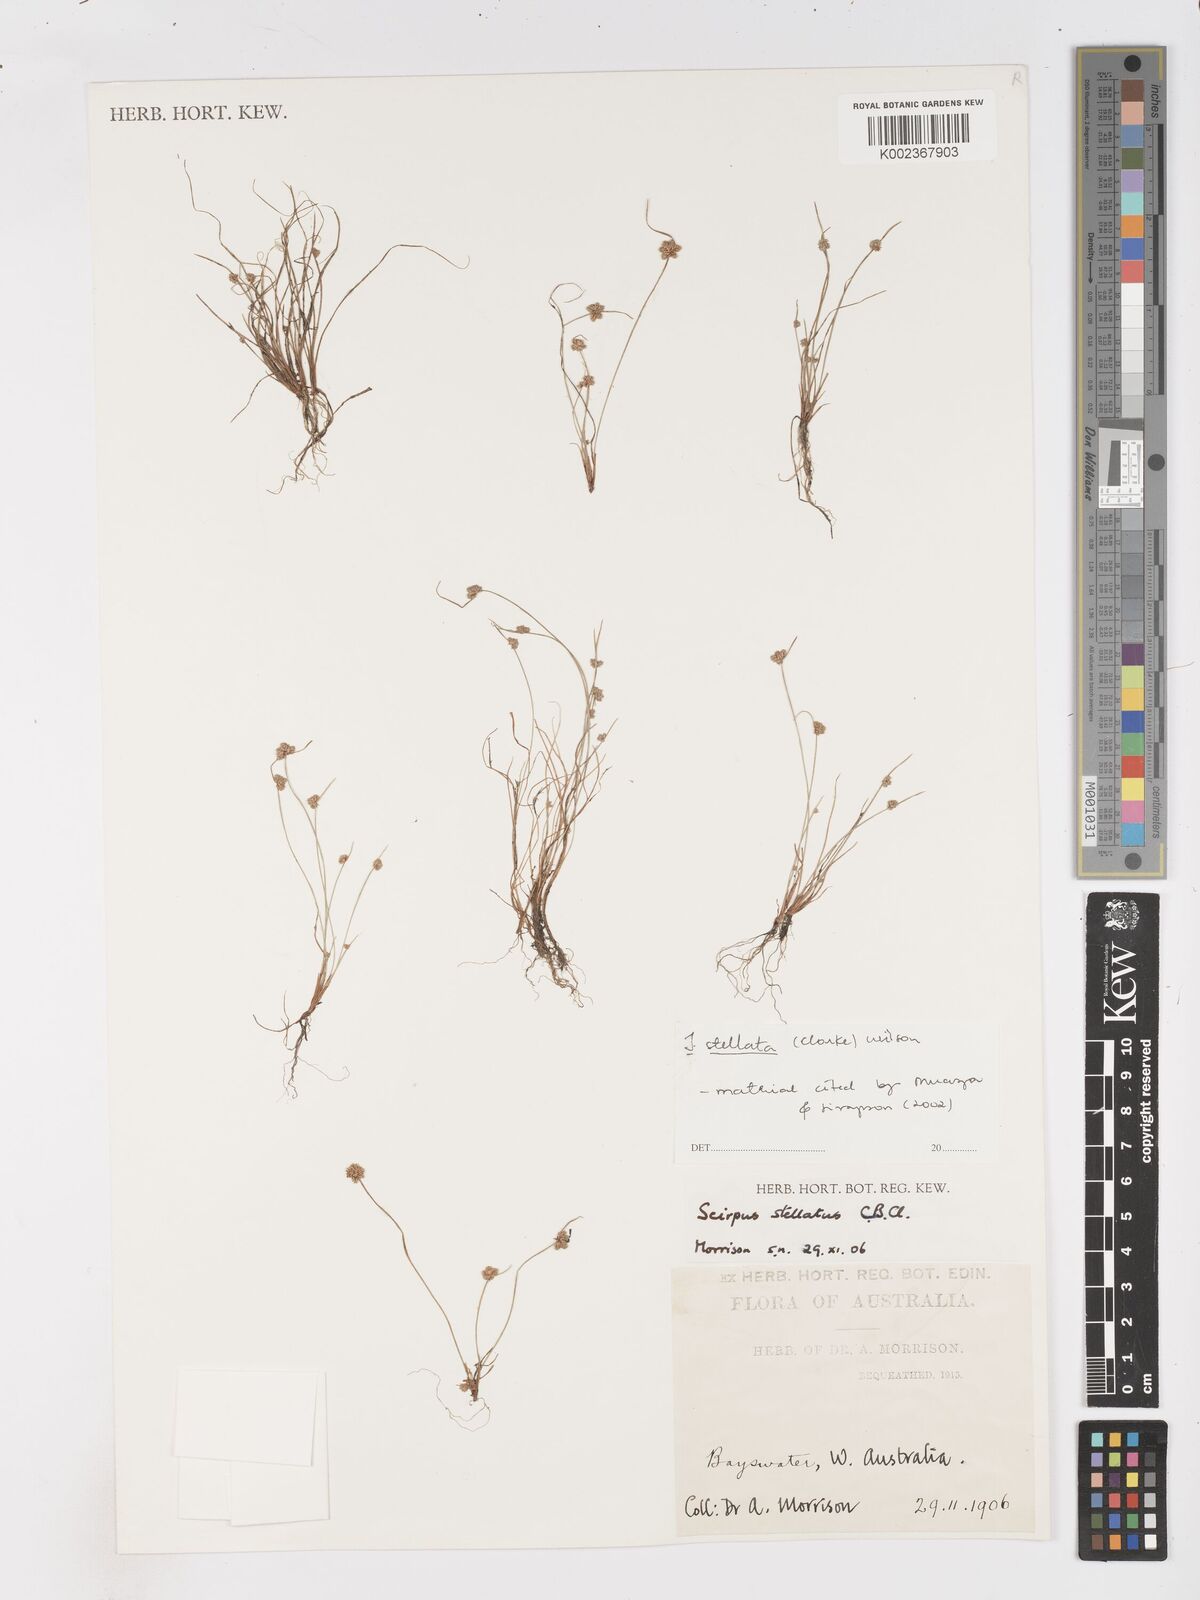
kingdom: Plantae
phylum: Tracheophyta
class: Liliopsida
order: Poales
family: Cyperaceae
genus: Isolepis
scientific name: Isolepis stellata
